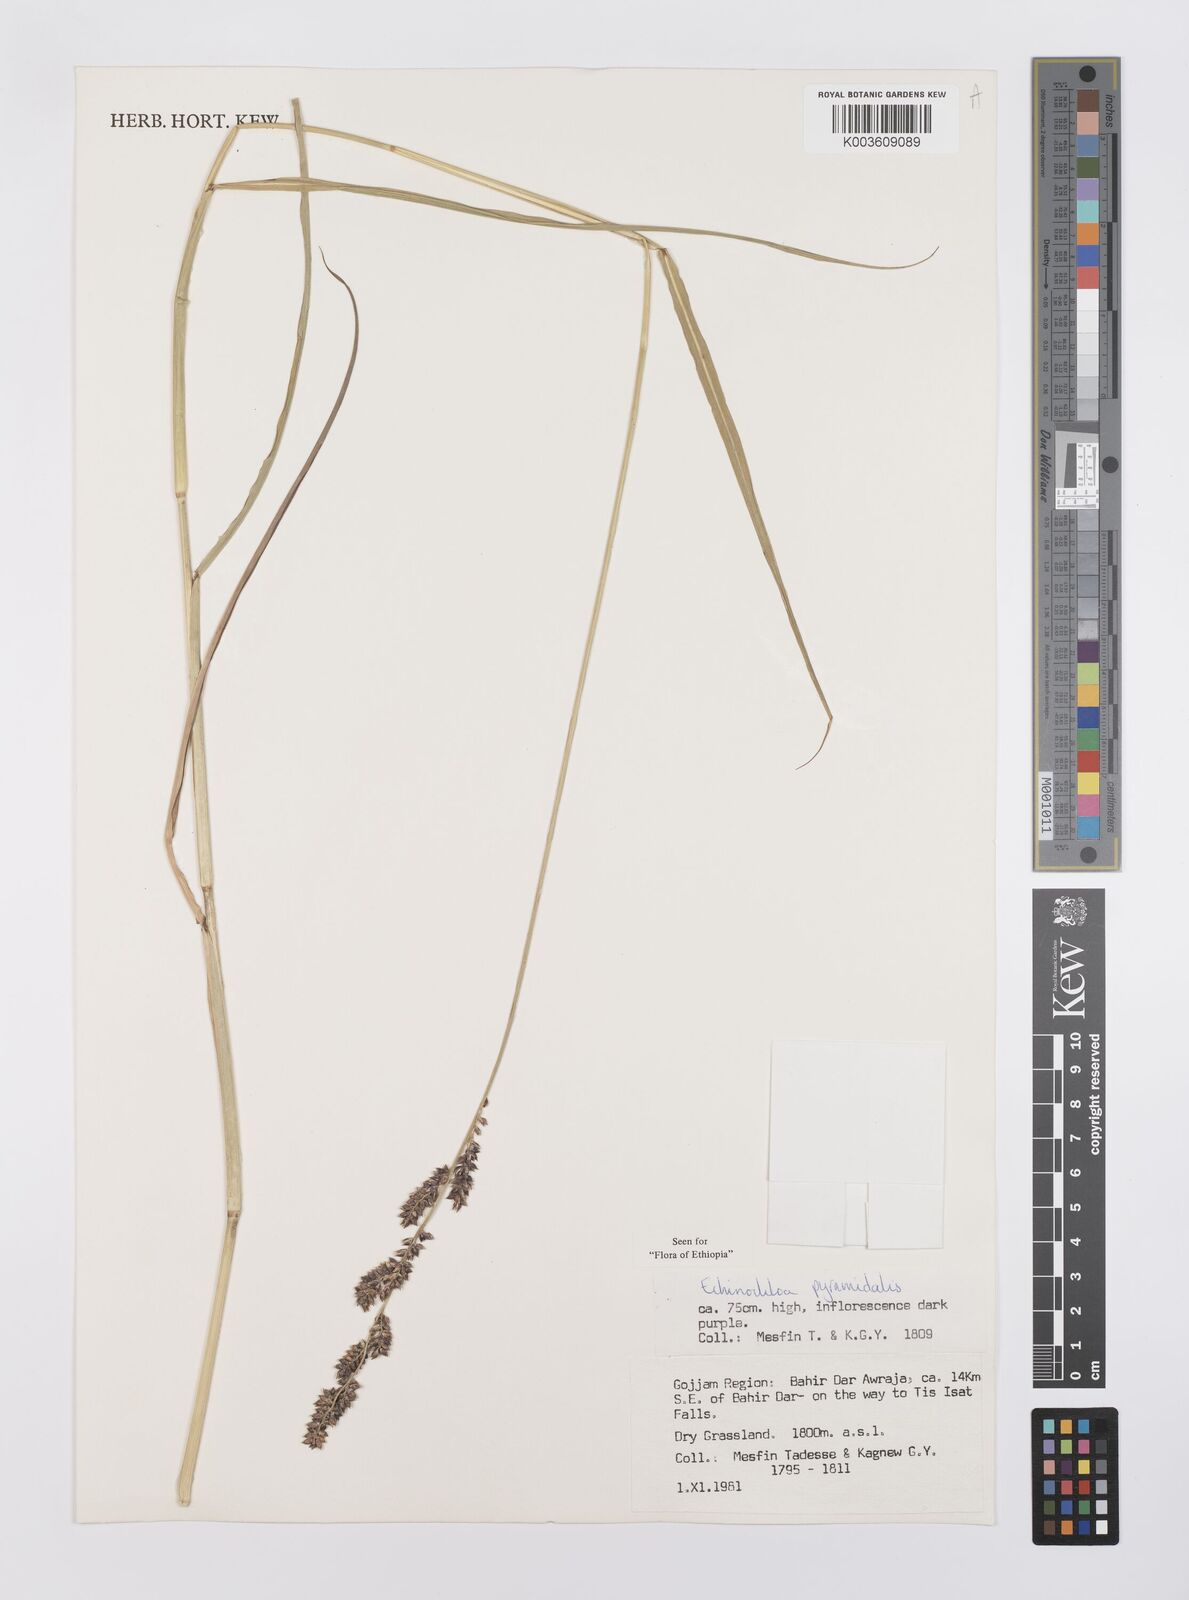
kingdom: Plantae
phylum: Tracheophyta
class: Liliopsida
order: Poales
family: Poaceae
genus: Echinochloa
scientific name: Echinochloa pyramidalis
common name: Antelope grass
